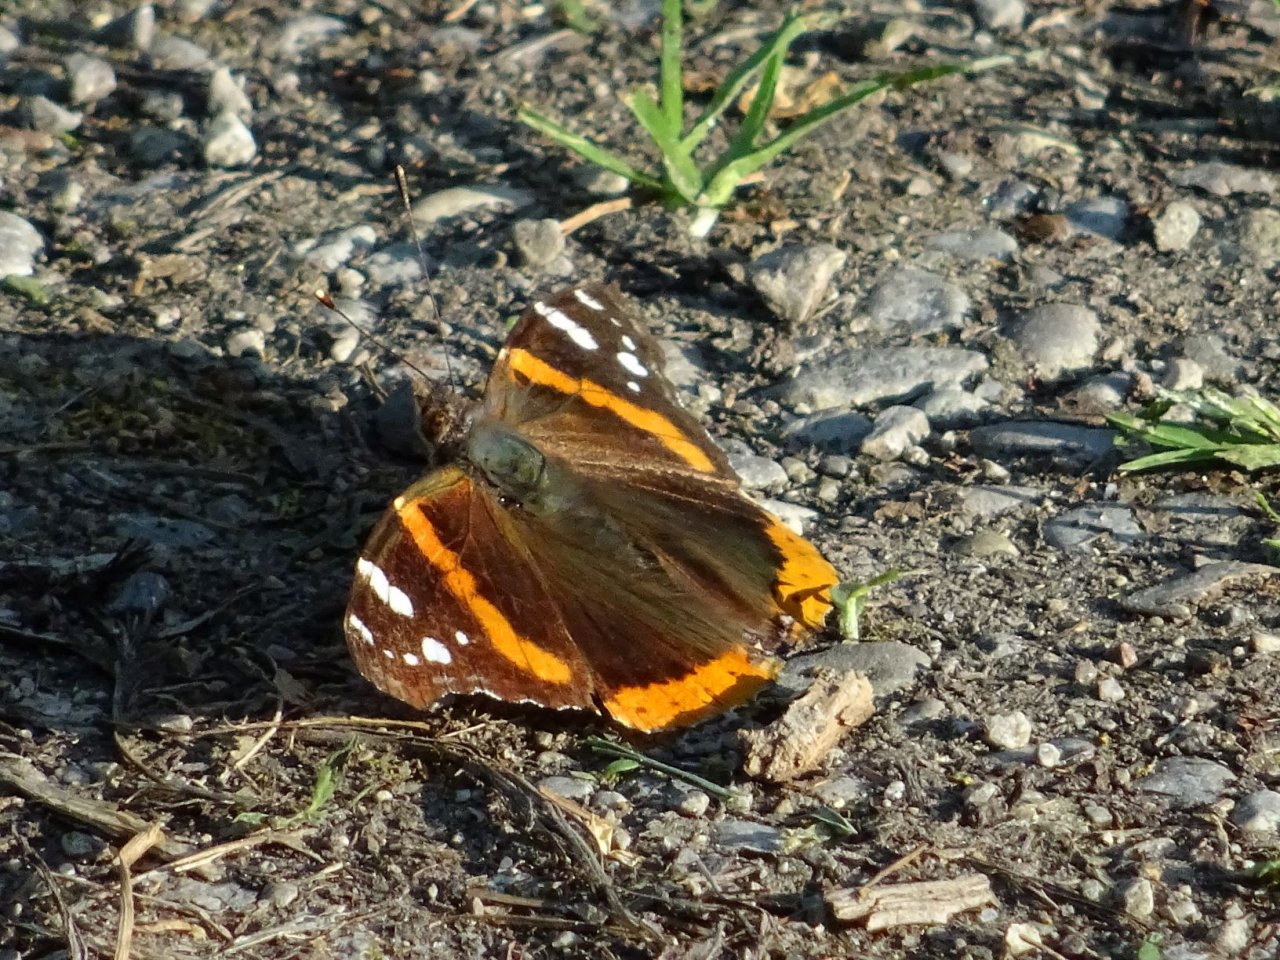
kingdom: Animalia
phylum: Arthropoda
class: Insecta
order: Lepidoptera
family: Nymphalidae
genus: Vanessa
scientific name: Vanessa atalanta
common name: Red Admiral
